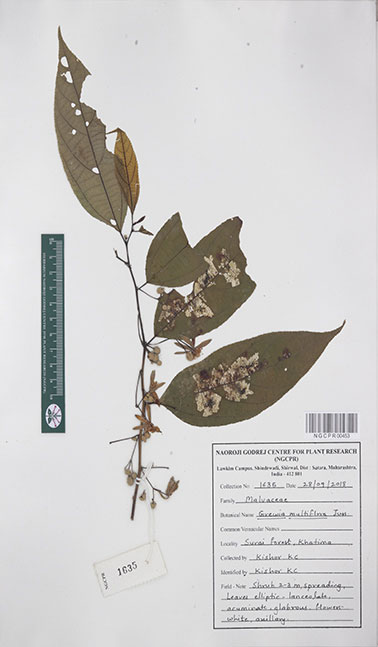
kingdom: Plantae
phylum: Tracheophyta
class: Magnoliopsida
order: Malvales
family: Malvaceae
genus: Grewia
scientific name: Grewia multiflora
